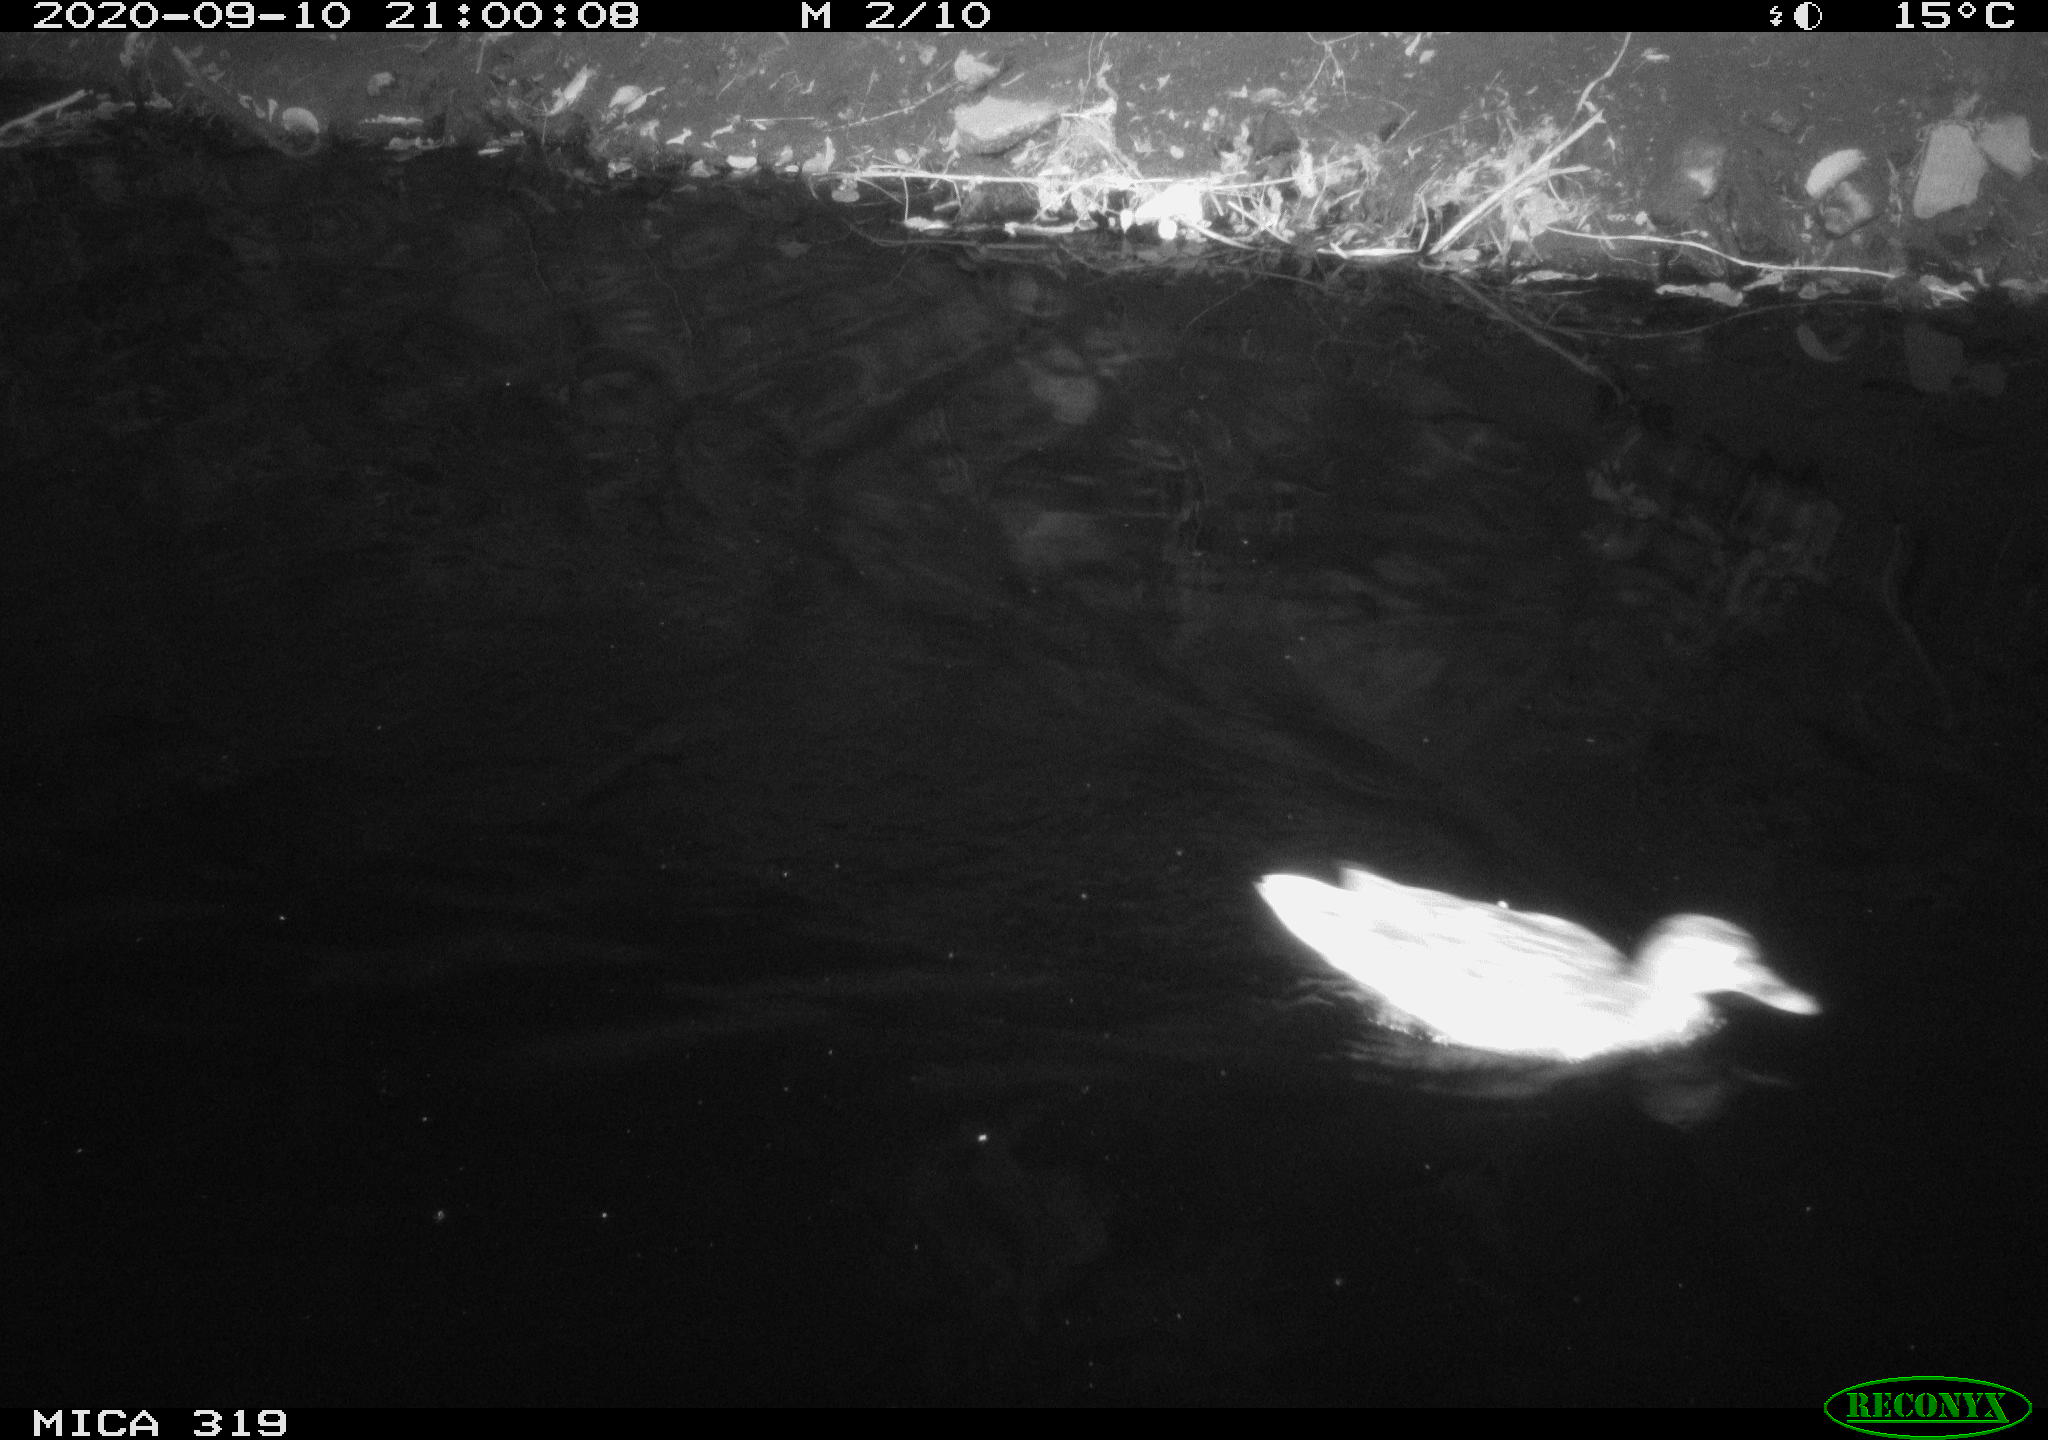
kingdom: Animalia
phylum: Chordata
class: Aves
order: Anseriformes
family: Anatidae
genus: Anas
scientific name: Anas platyrhynchos
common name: Mallard
